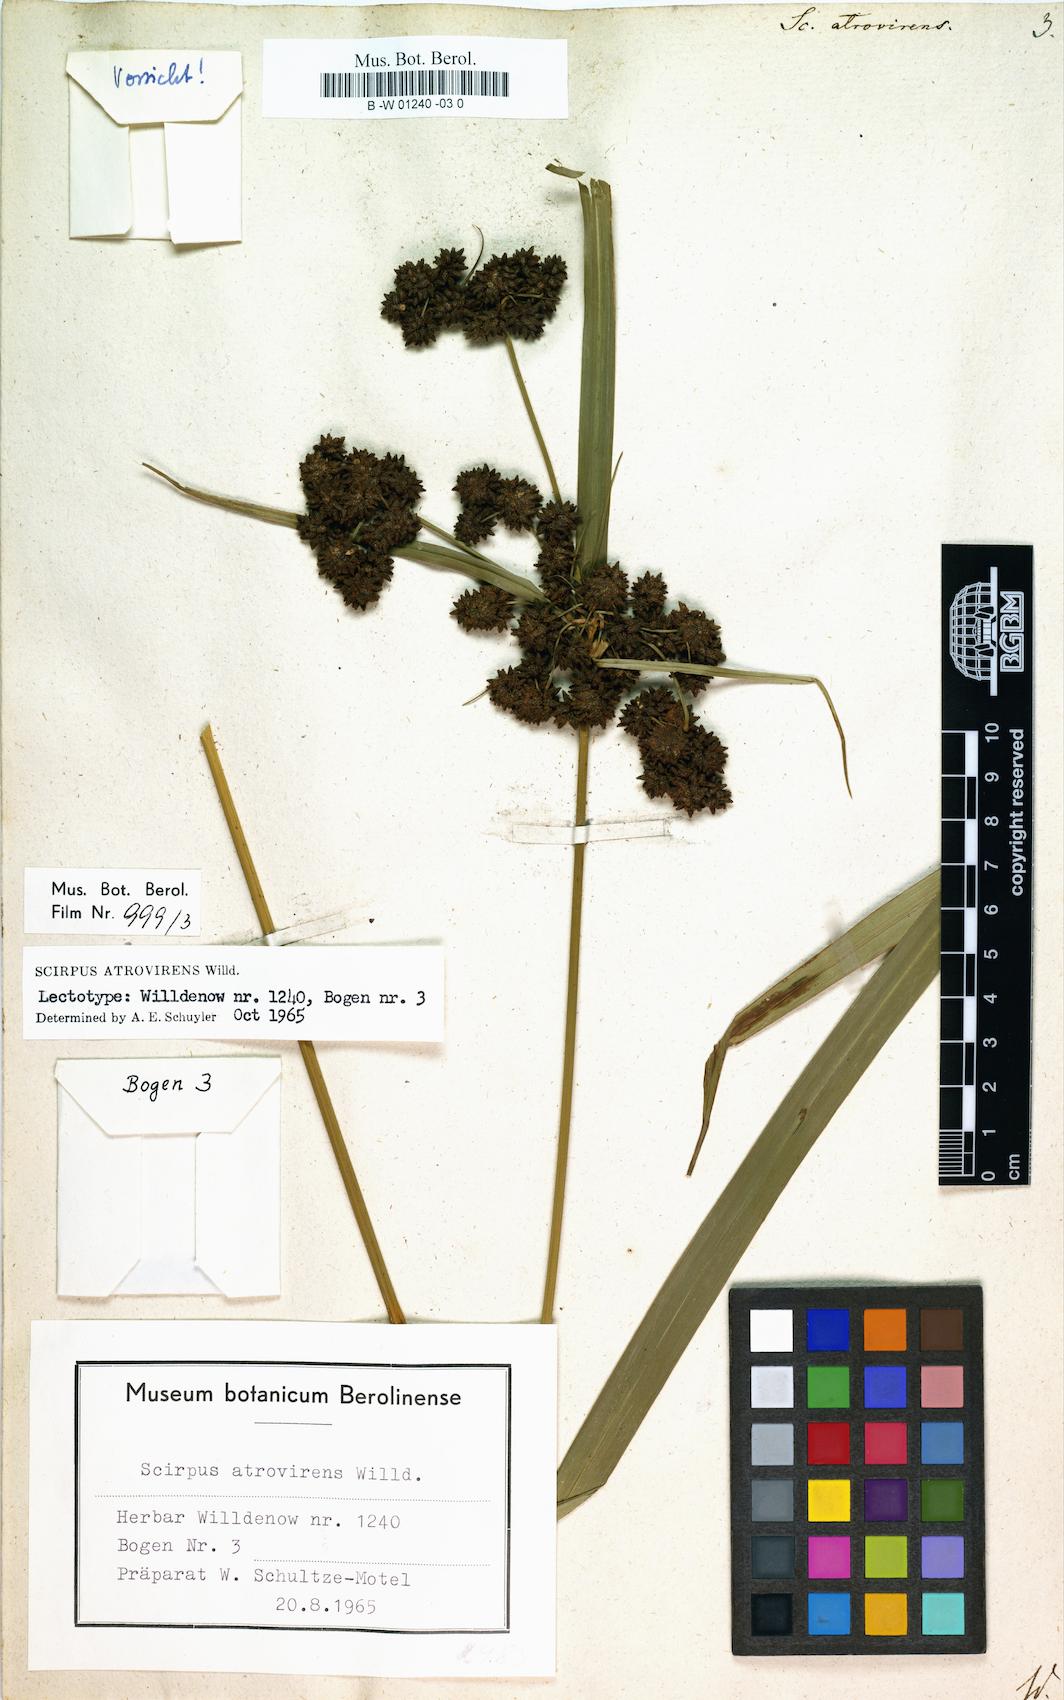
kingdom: Plantae
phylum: Tracheophyta
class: Liliopsida
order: Poales
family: Cyperaceae
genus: Scirpus
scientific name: Scirpus atrovirens
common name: Black bulrush
